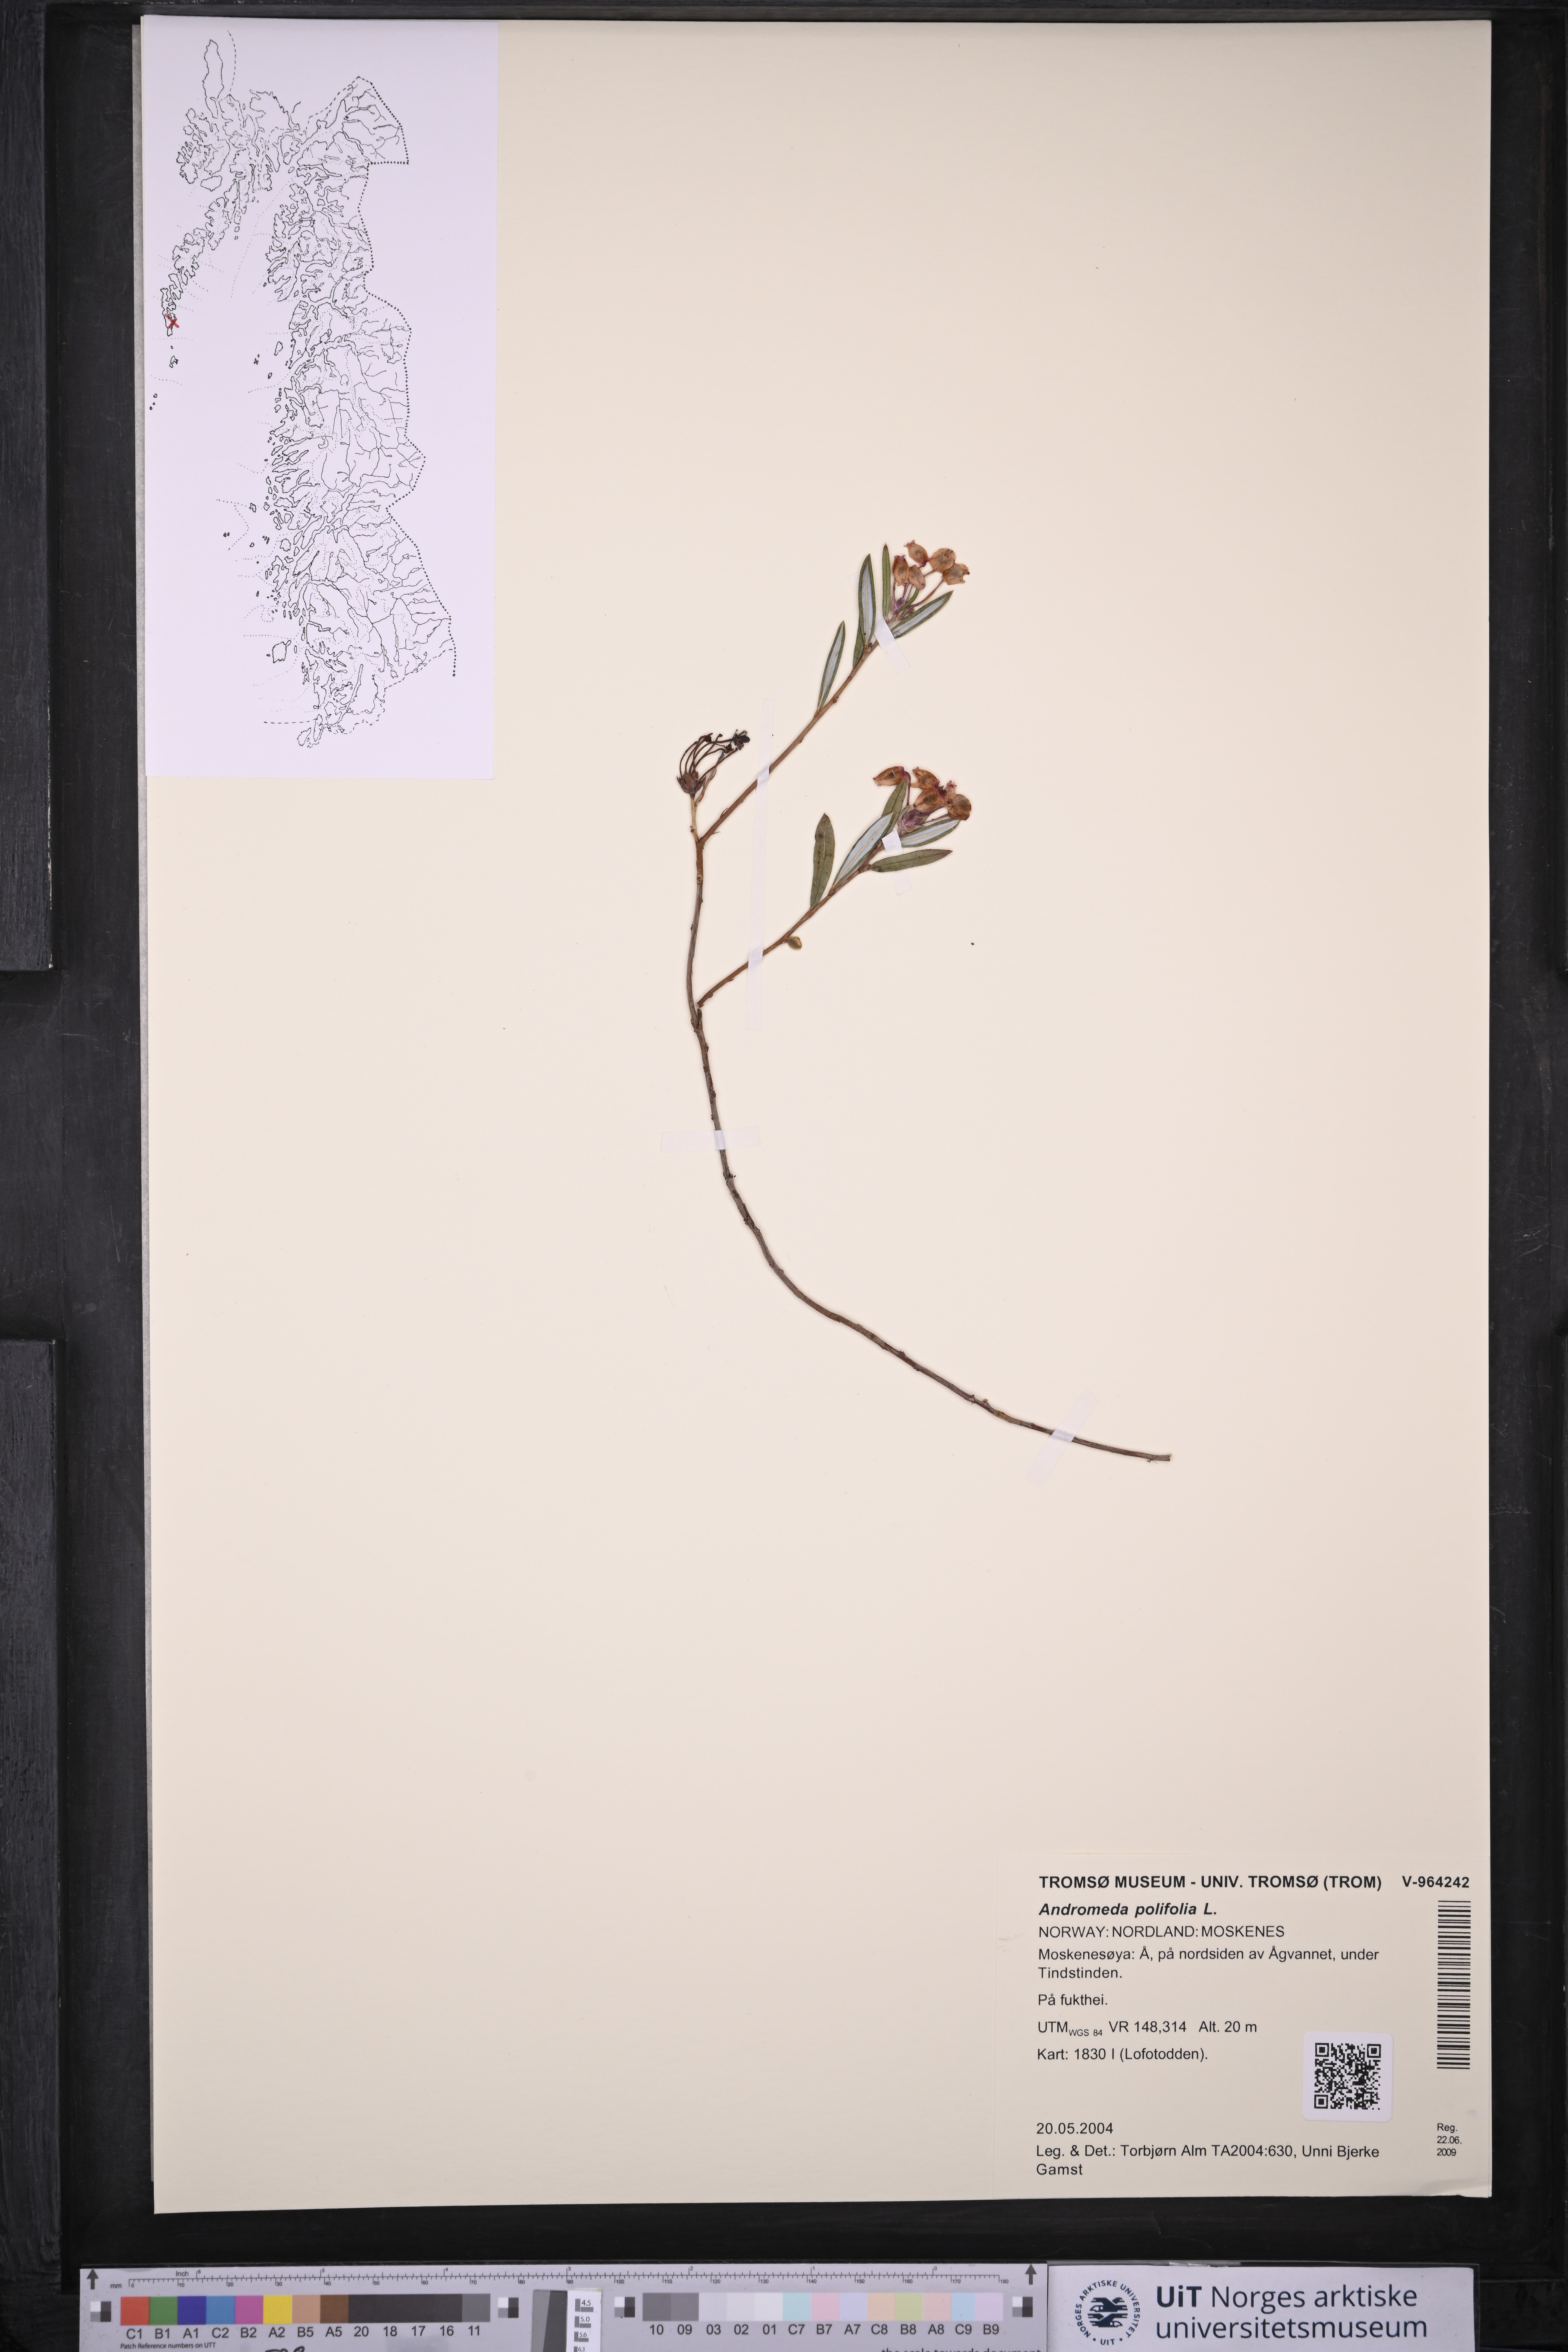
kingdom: Plantae
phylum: Tracheophyta
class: Magnoliopsida
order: Ericales
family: Ericaceae
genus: Andromeda
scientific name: Andromeda polifolia
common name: Bog-rosemary
